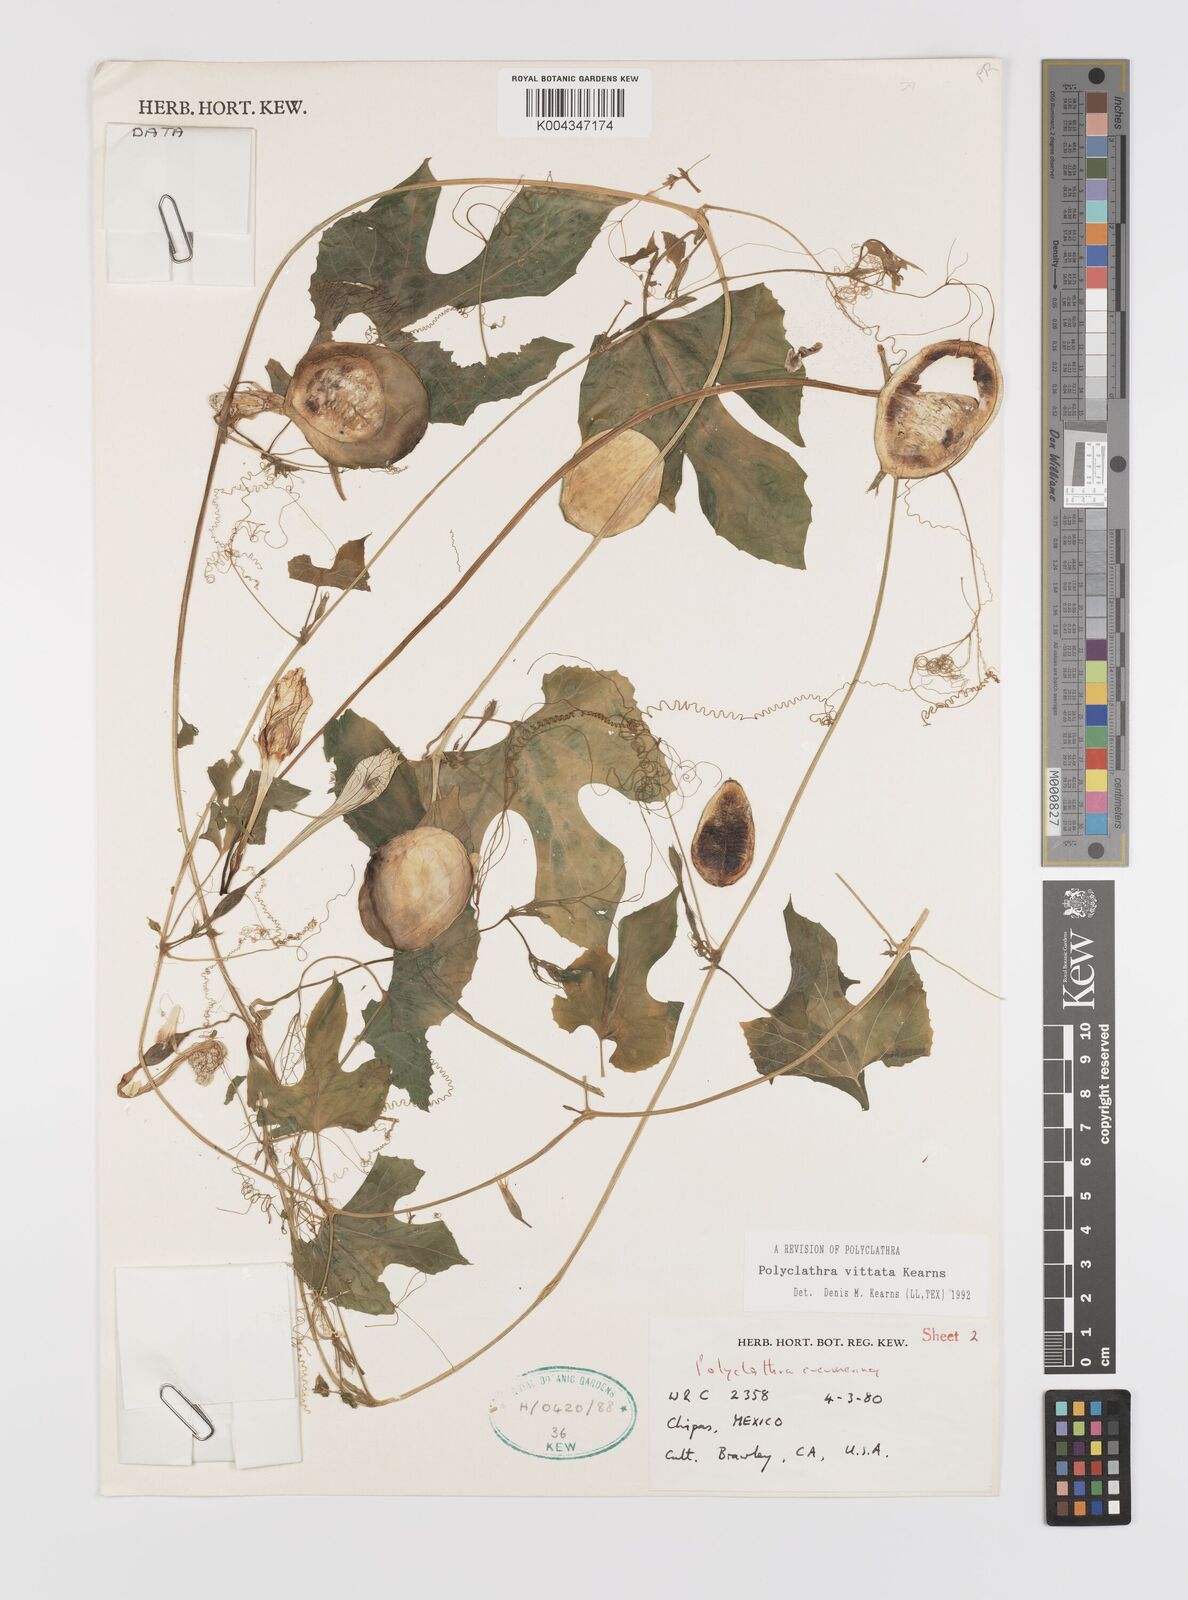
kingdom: Plantae
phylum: Tracheophyta
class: Magnoliopsida
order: Cucurbitales
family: Cucurbitaceae
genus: Polyclathra
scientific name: Polyclathra
